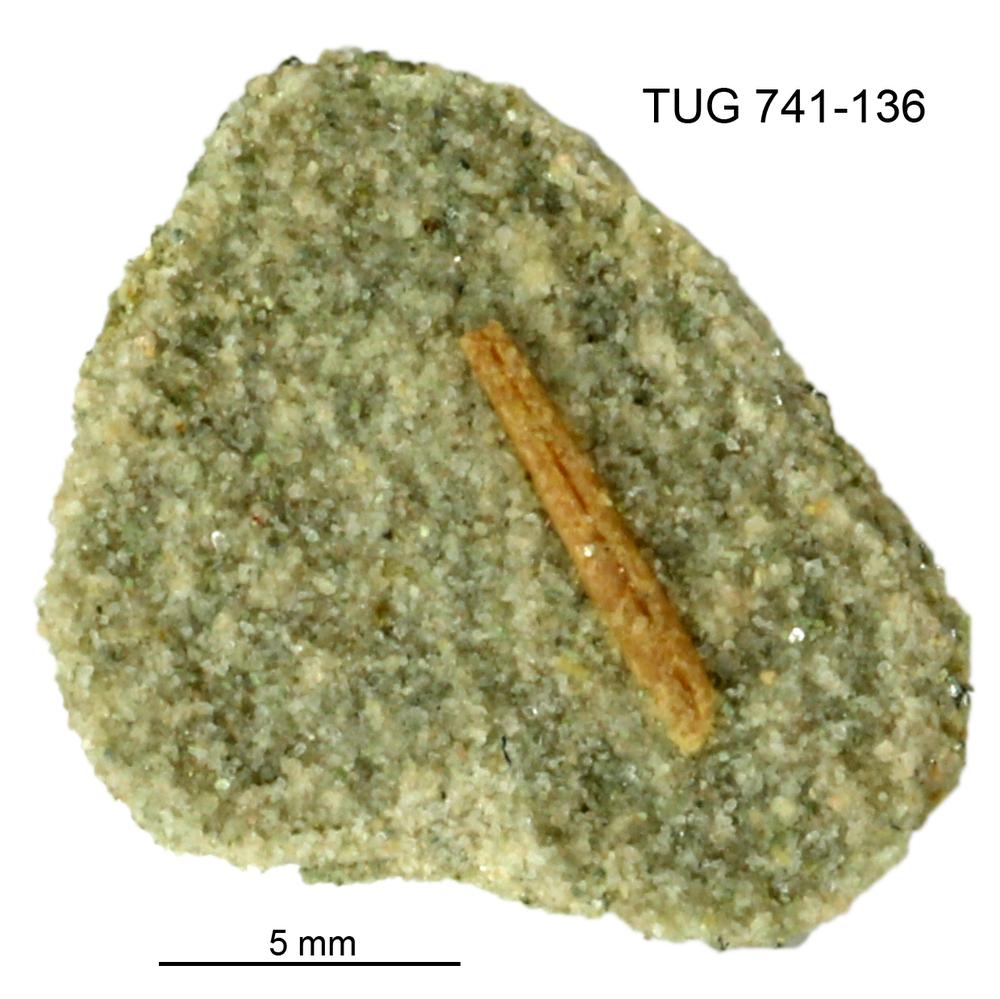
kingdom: Animalia
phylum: Chordata
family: Acanthodidae
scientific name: Acanthodidae
